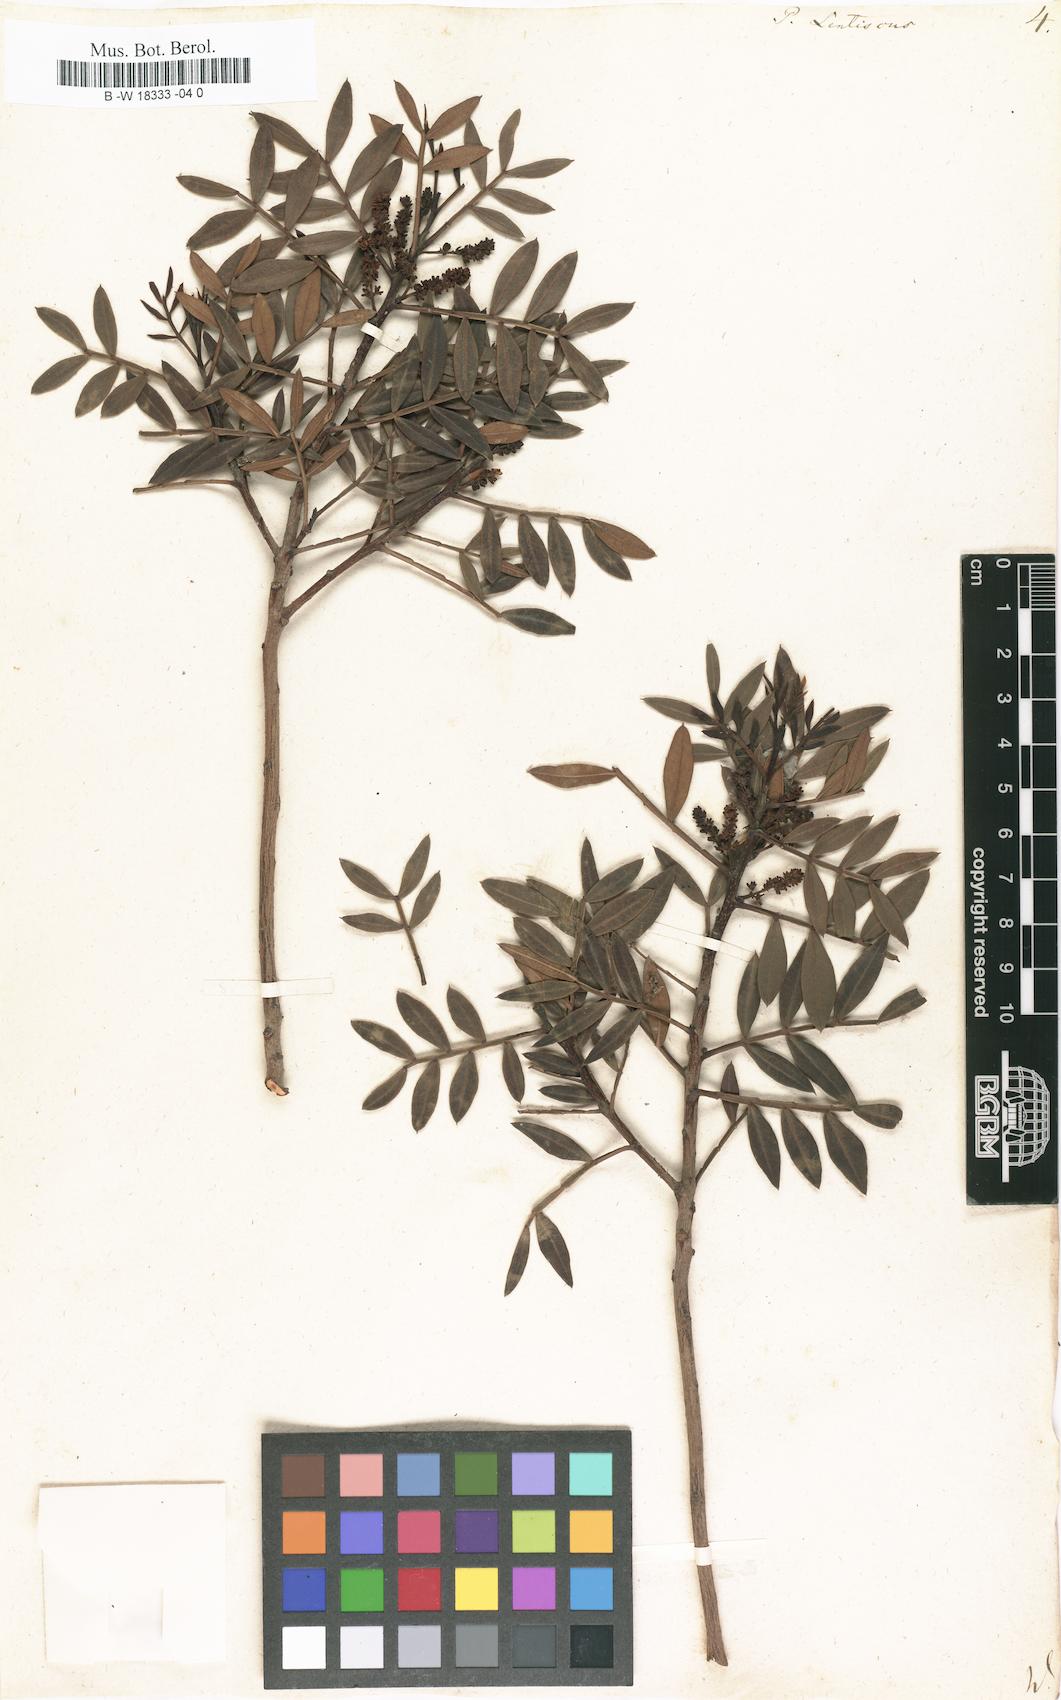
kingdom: Plantae
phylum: Tracheophyta
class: Magnoliopsida
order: Sapindales
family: Anacardiaceae
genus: Pistacia
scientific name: Pistacia lentiscus
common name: Lentisk
